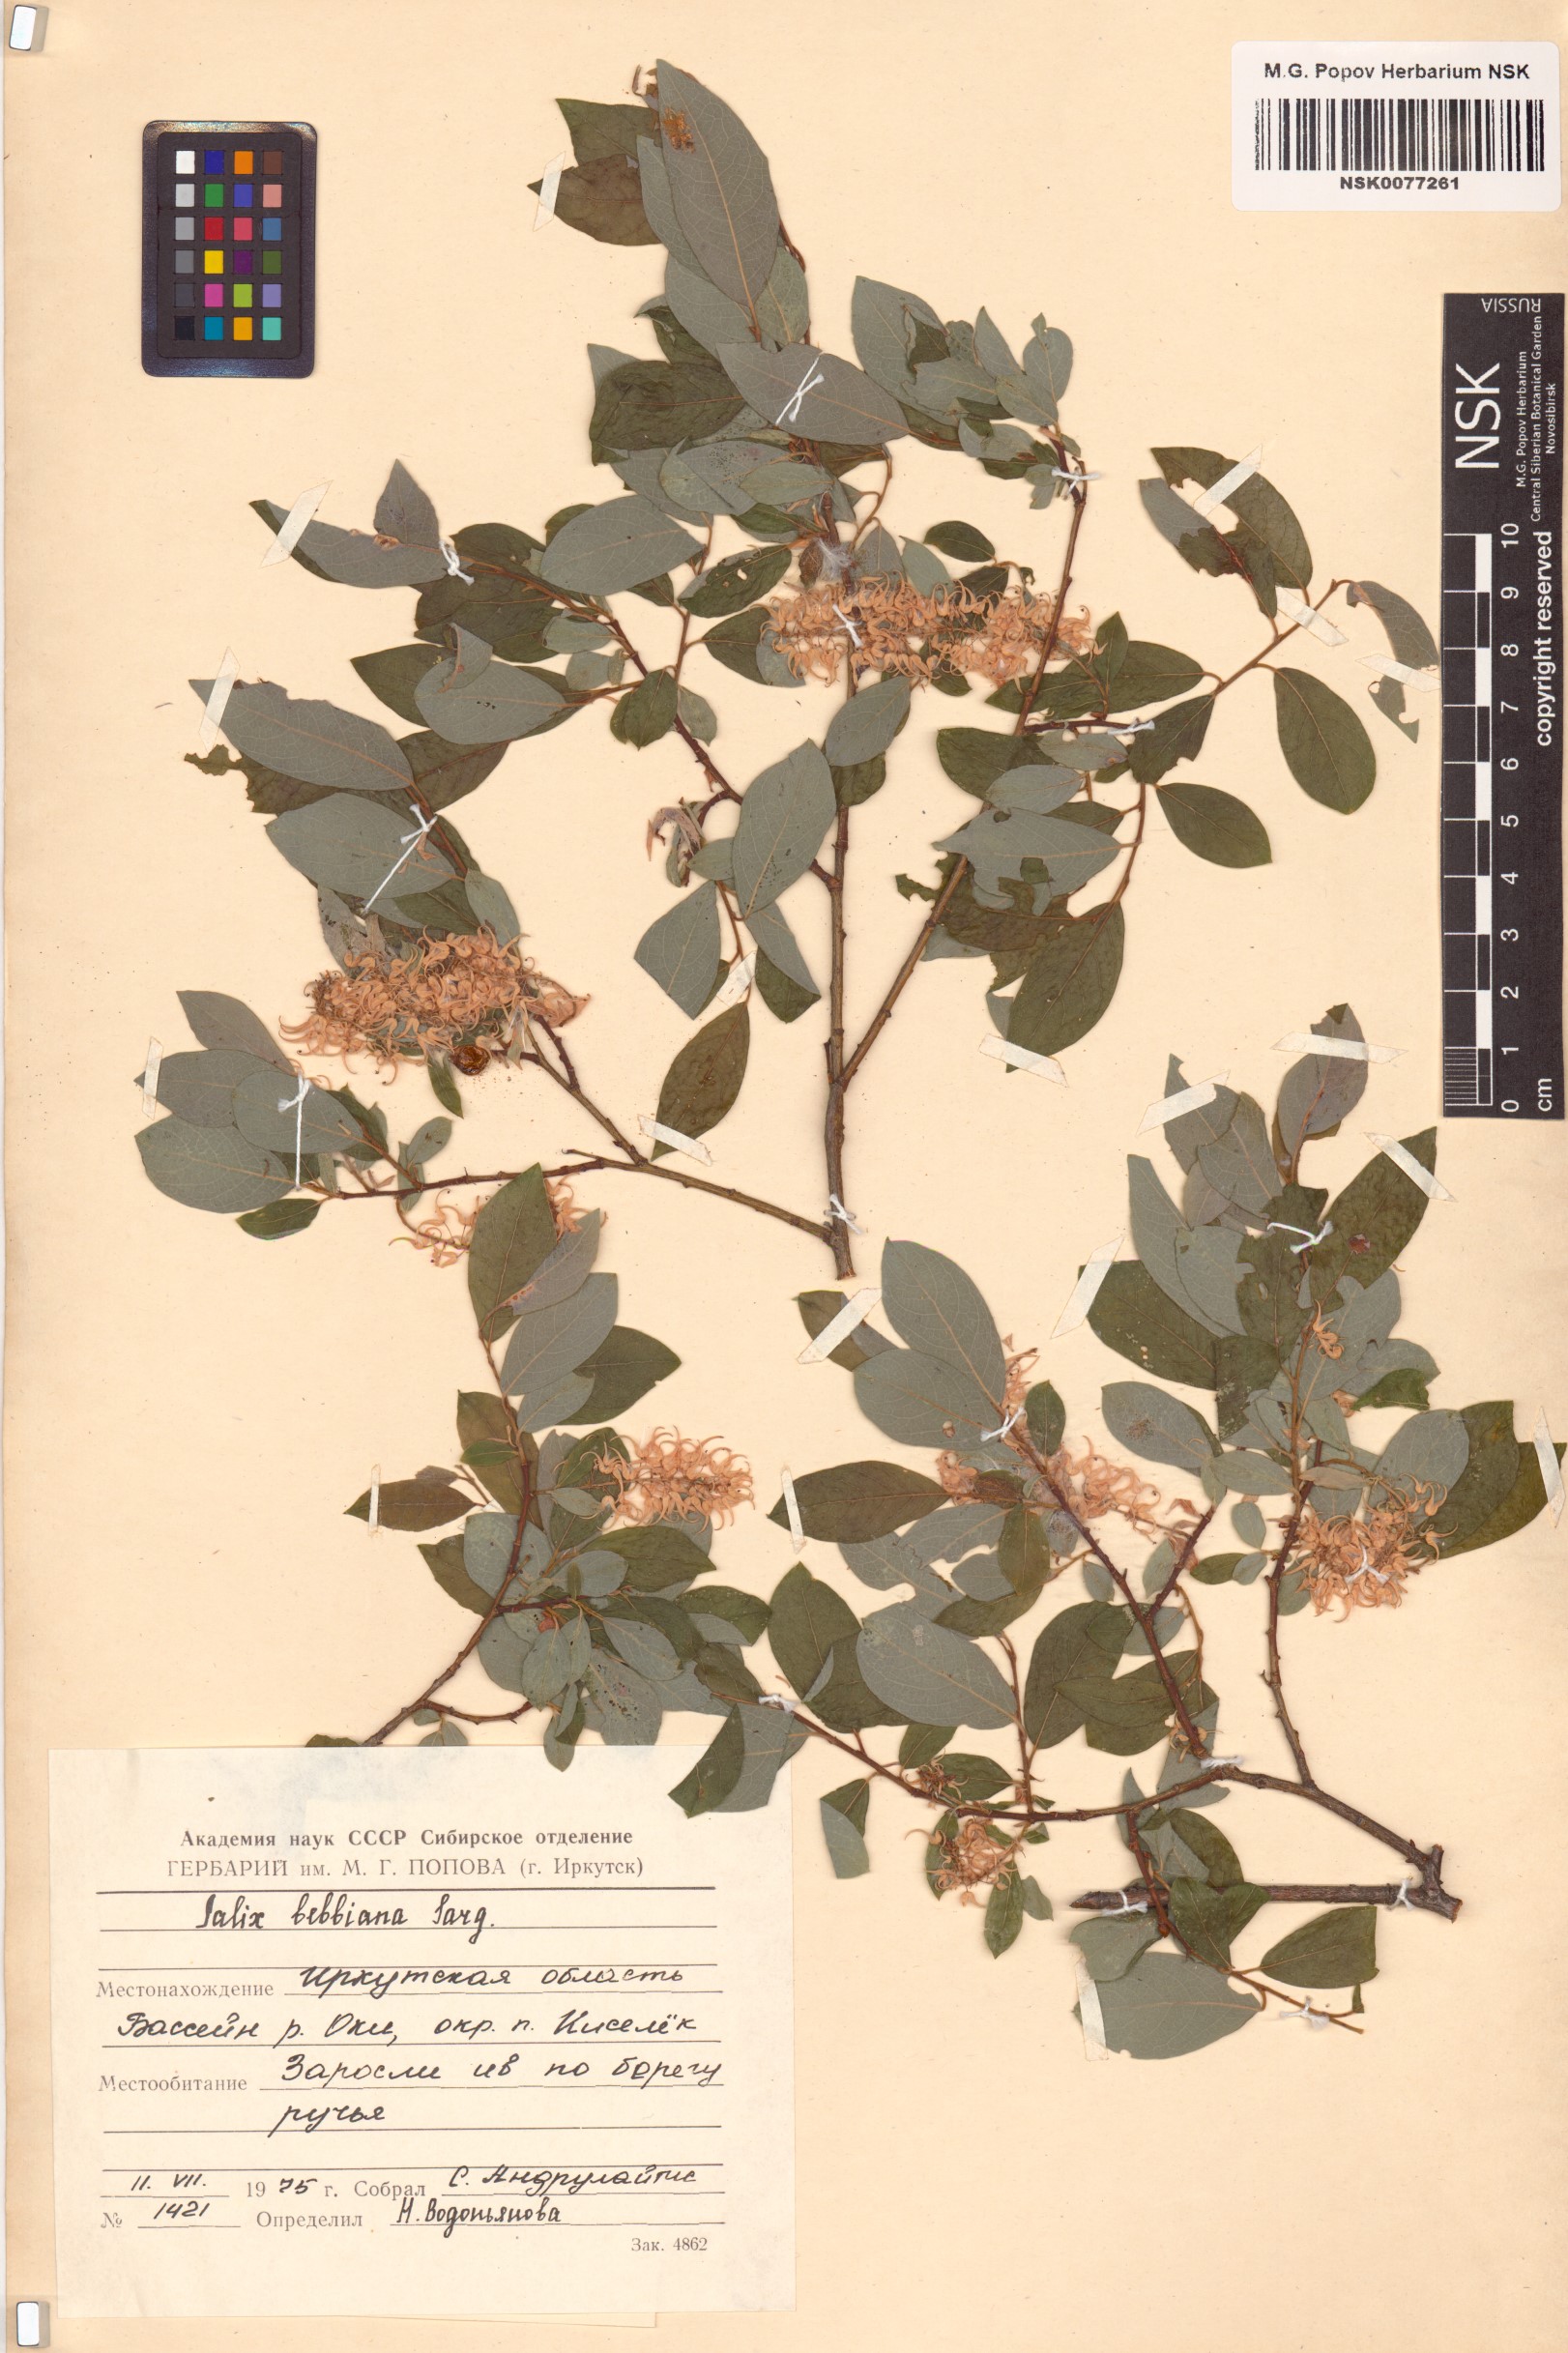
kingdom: Plantae
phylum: Tracheophyta
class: Magnoliopsida
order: Malpighiales
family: Salicaceae
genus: Salix
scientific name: Salix bebbiana
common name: Bebb's willow
